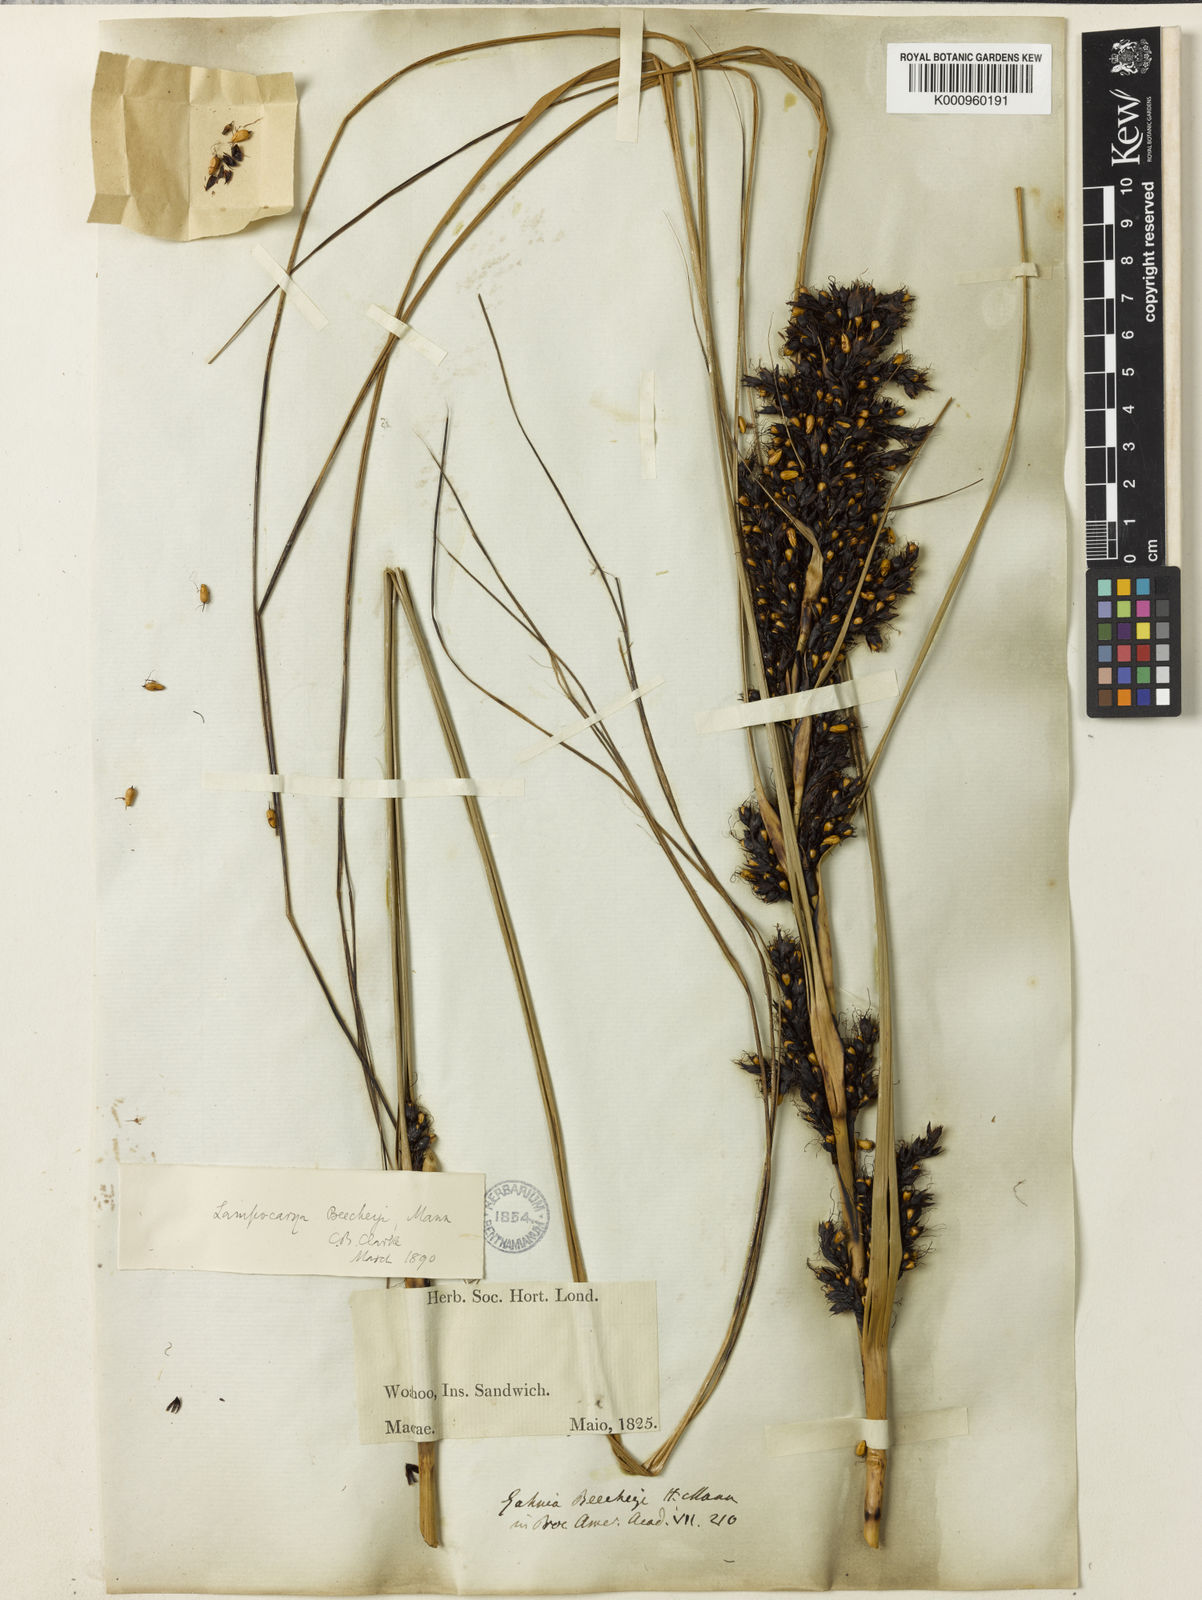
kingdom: Plantae
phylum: Tracheophyta
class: Liliopsida
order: Poales
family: Cyperaceae
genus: Gahnia
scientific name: Gahnia beecheyi
